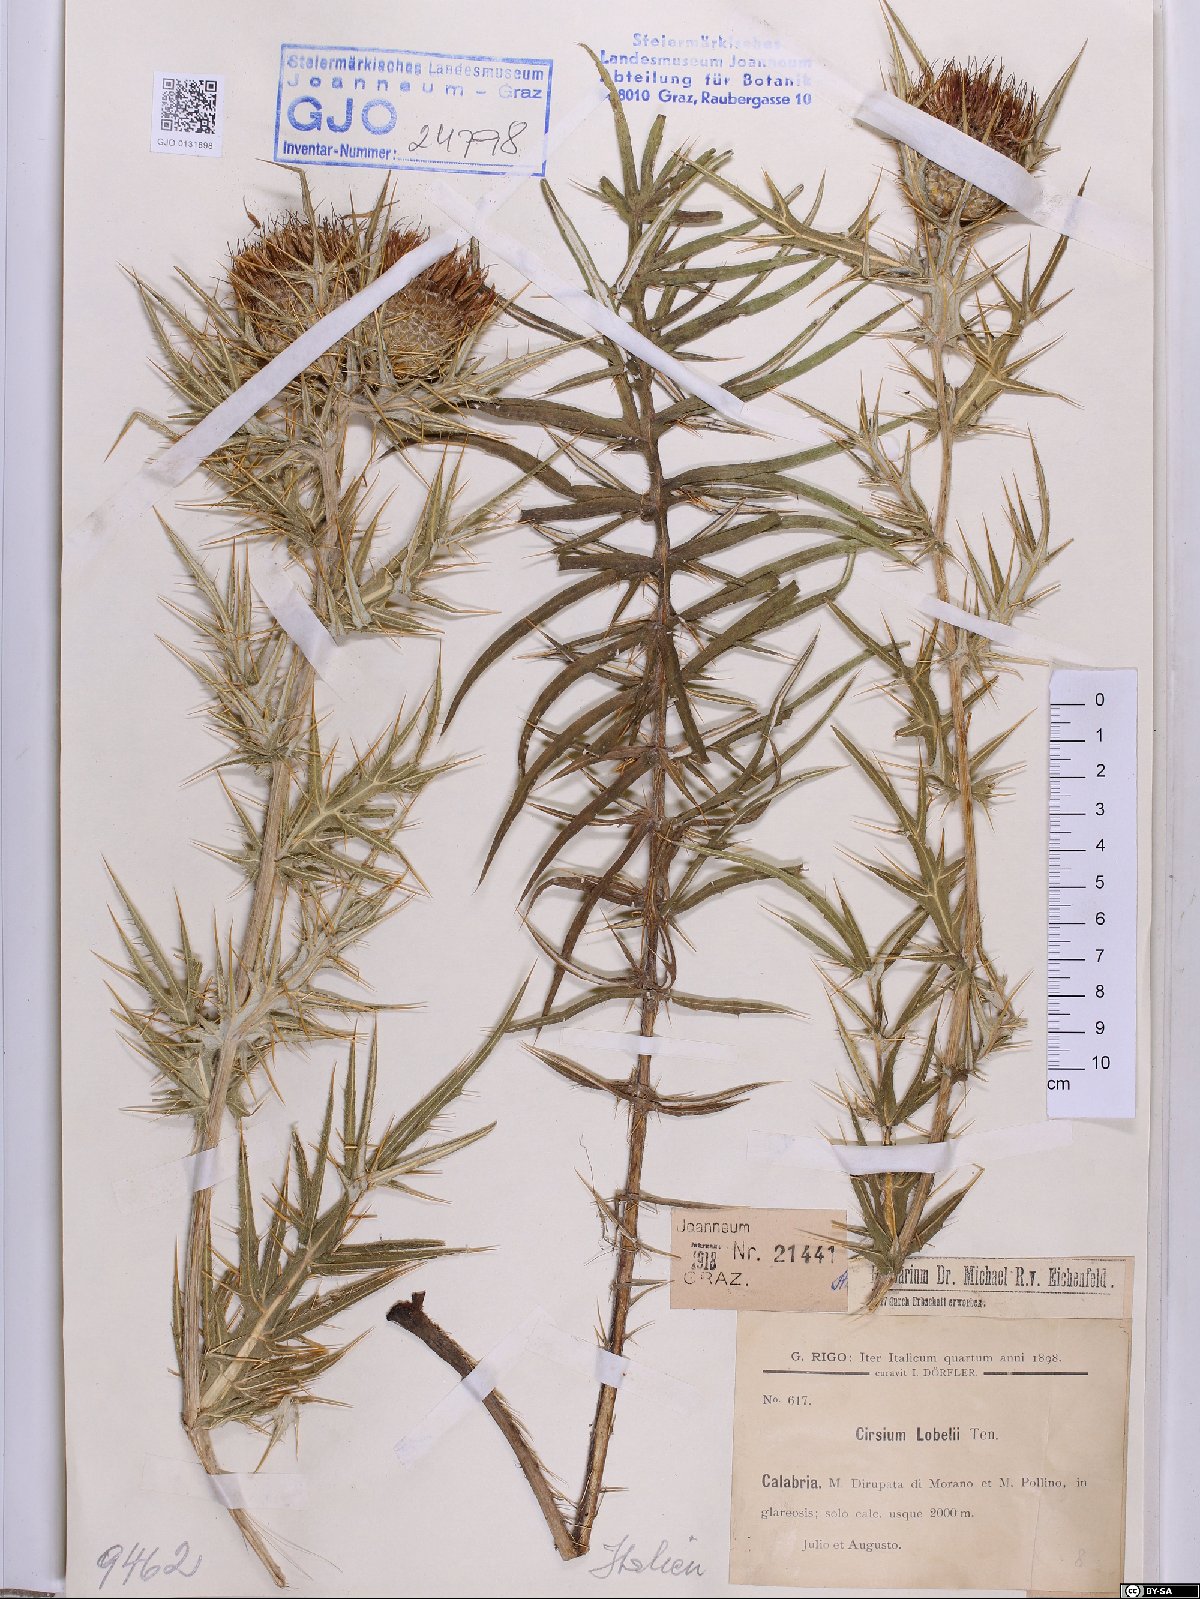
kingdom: Plantae
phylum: Tracheophyta
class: Magnoliopsida
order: Asterales
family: Asteraceae
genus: Lophiolepis
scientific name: Lophiolepis lobelii
